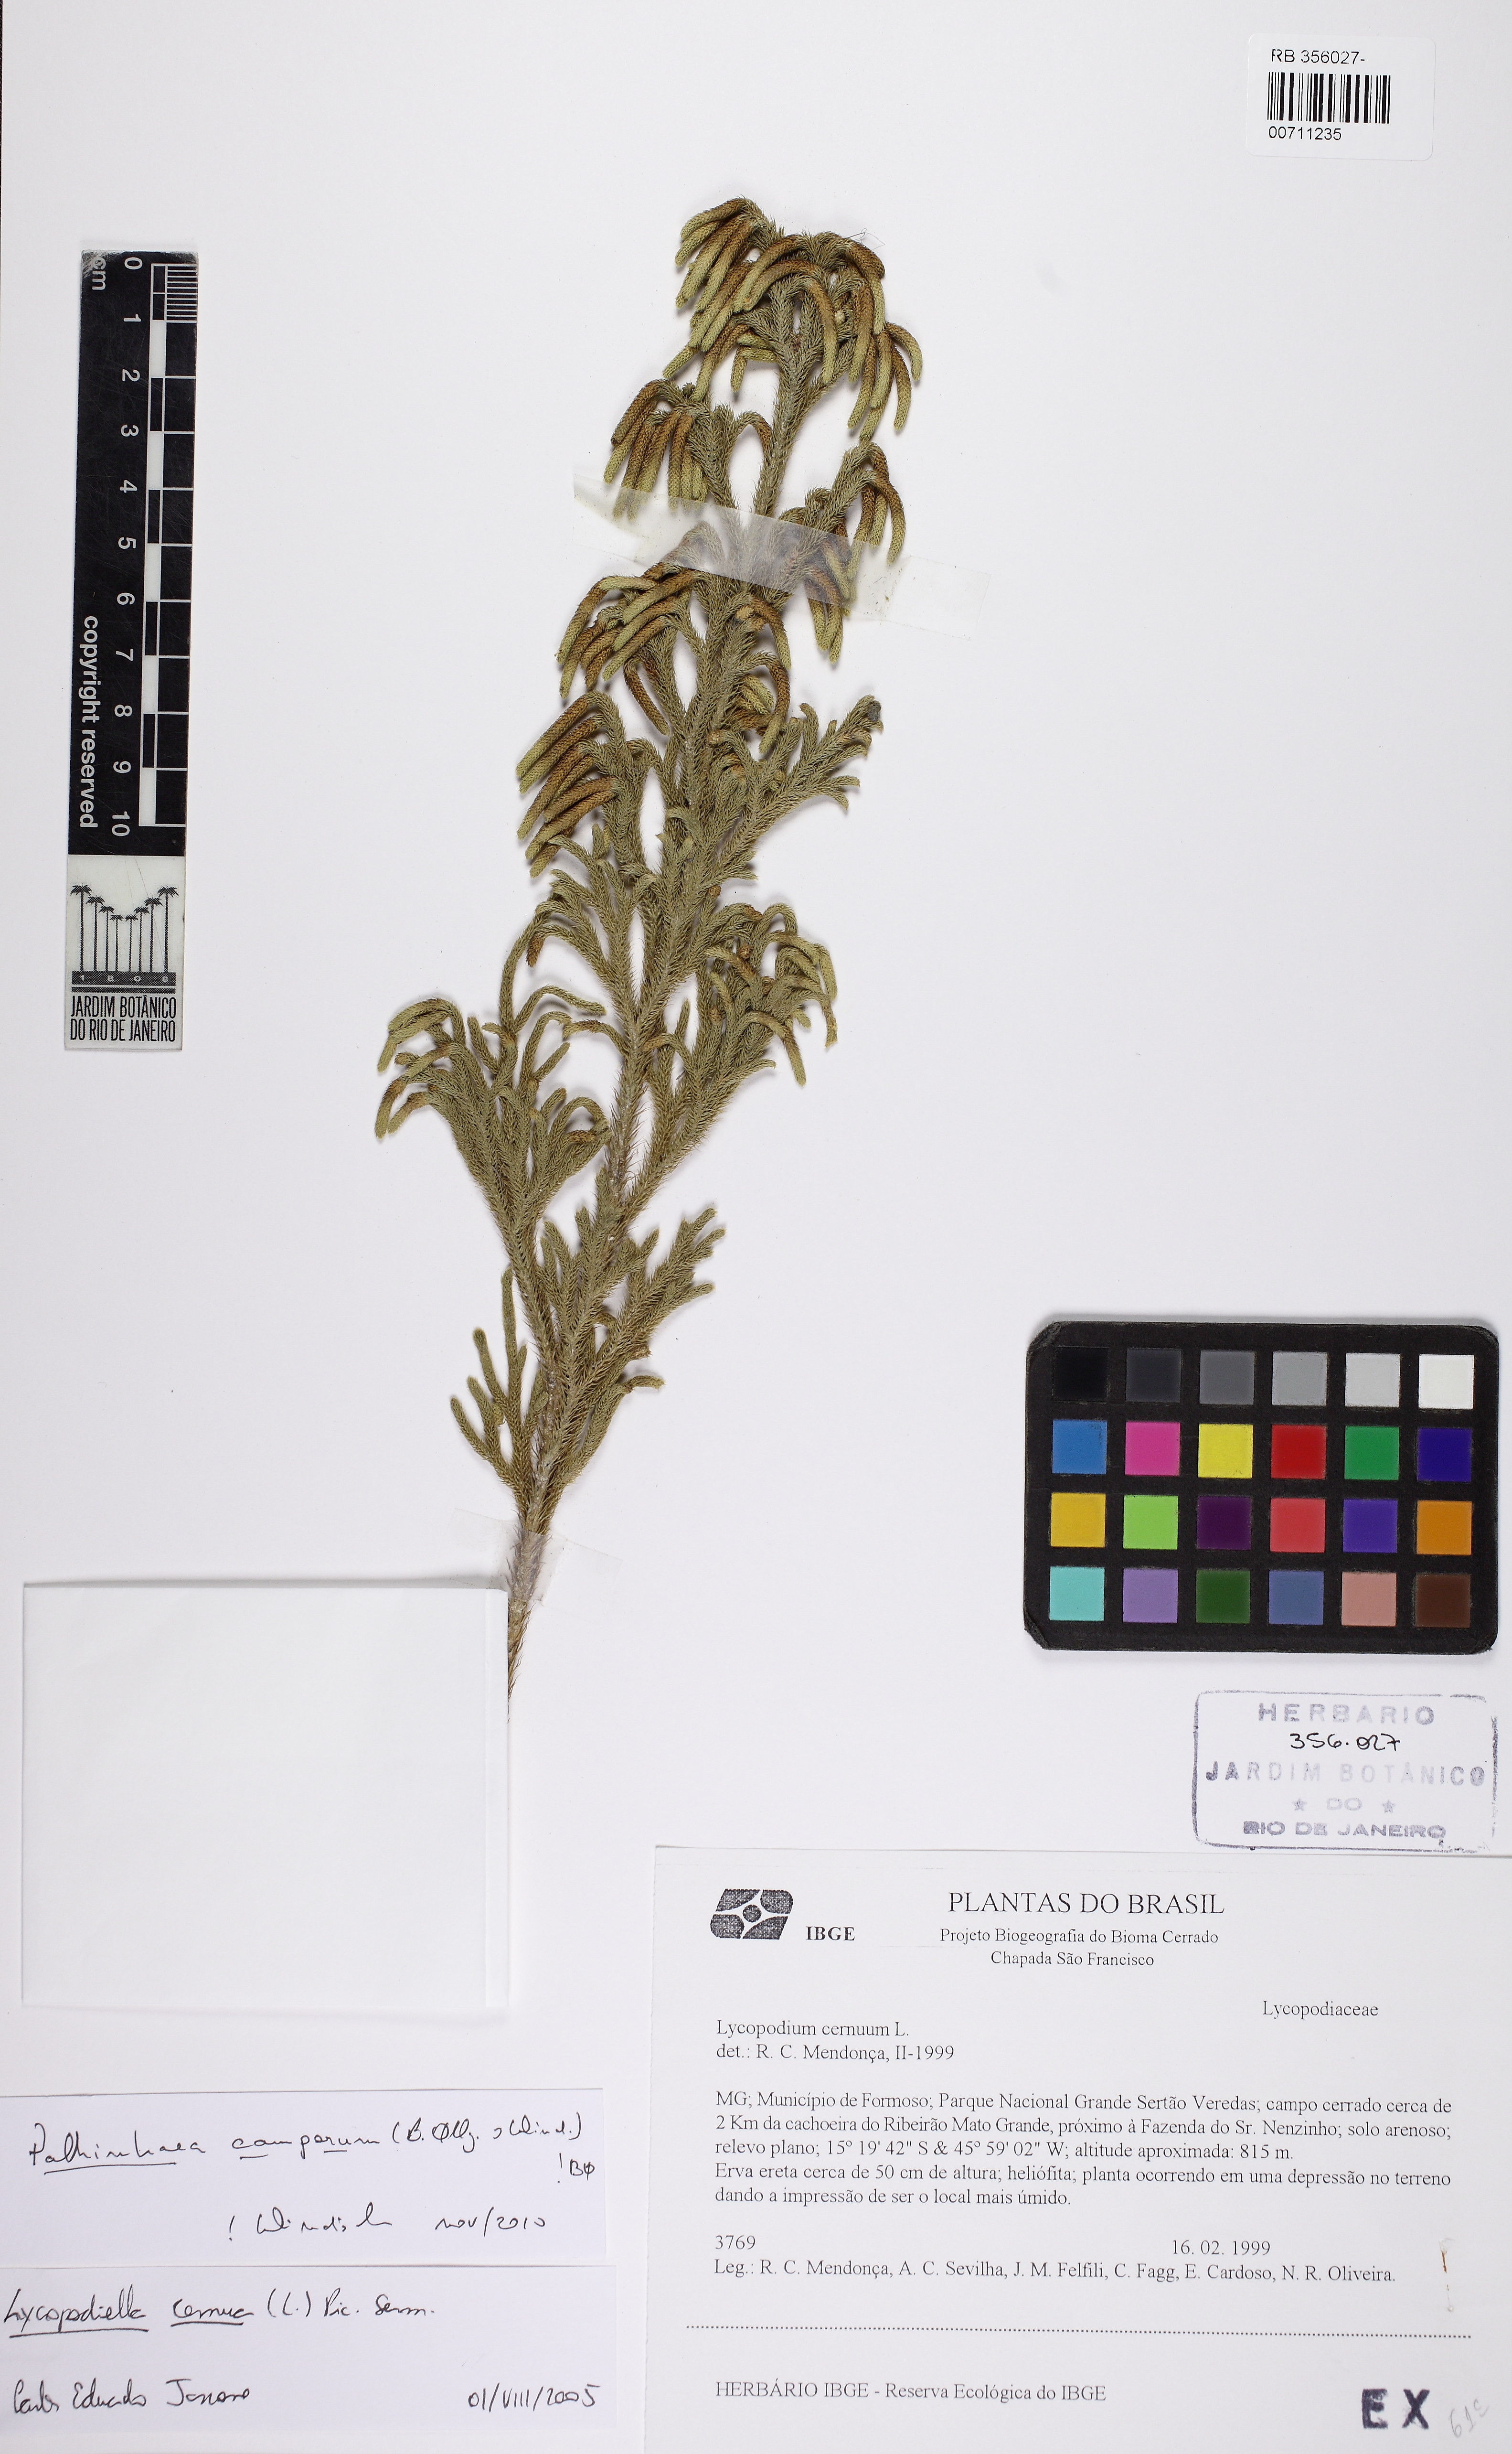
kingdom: Plantae
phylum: Tracheophyta
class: Lycopodiopsida
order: Lycopodiales
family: Lycopodiaceae
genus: Palhinhaea
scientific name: Palhinhaea camporum
